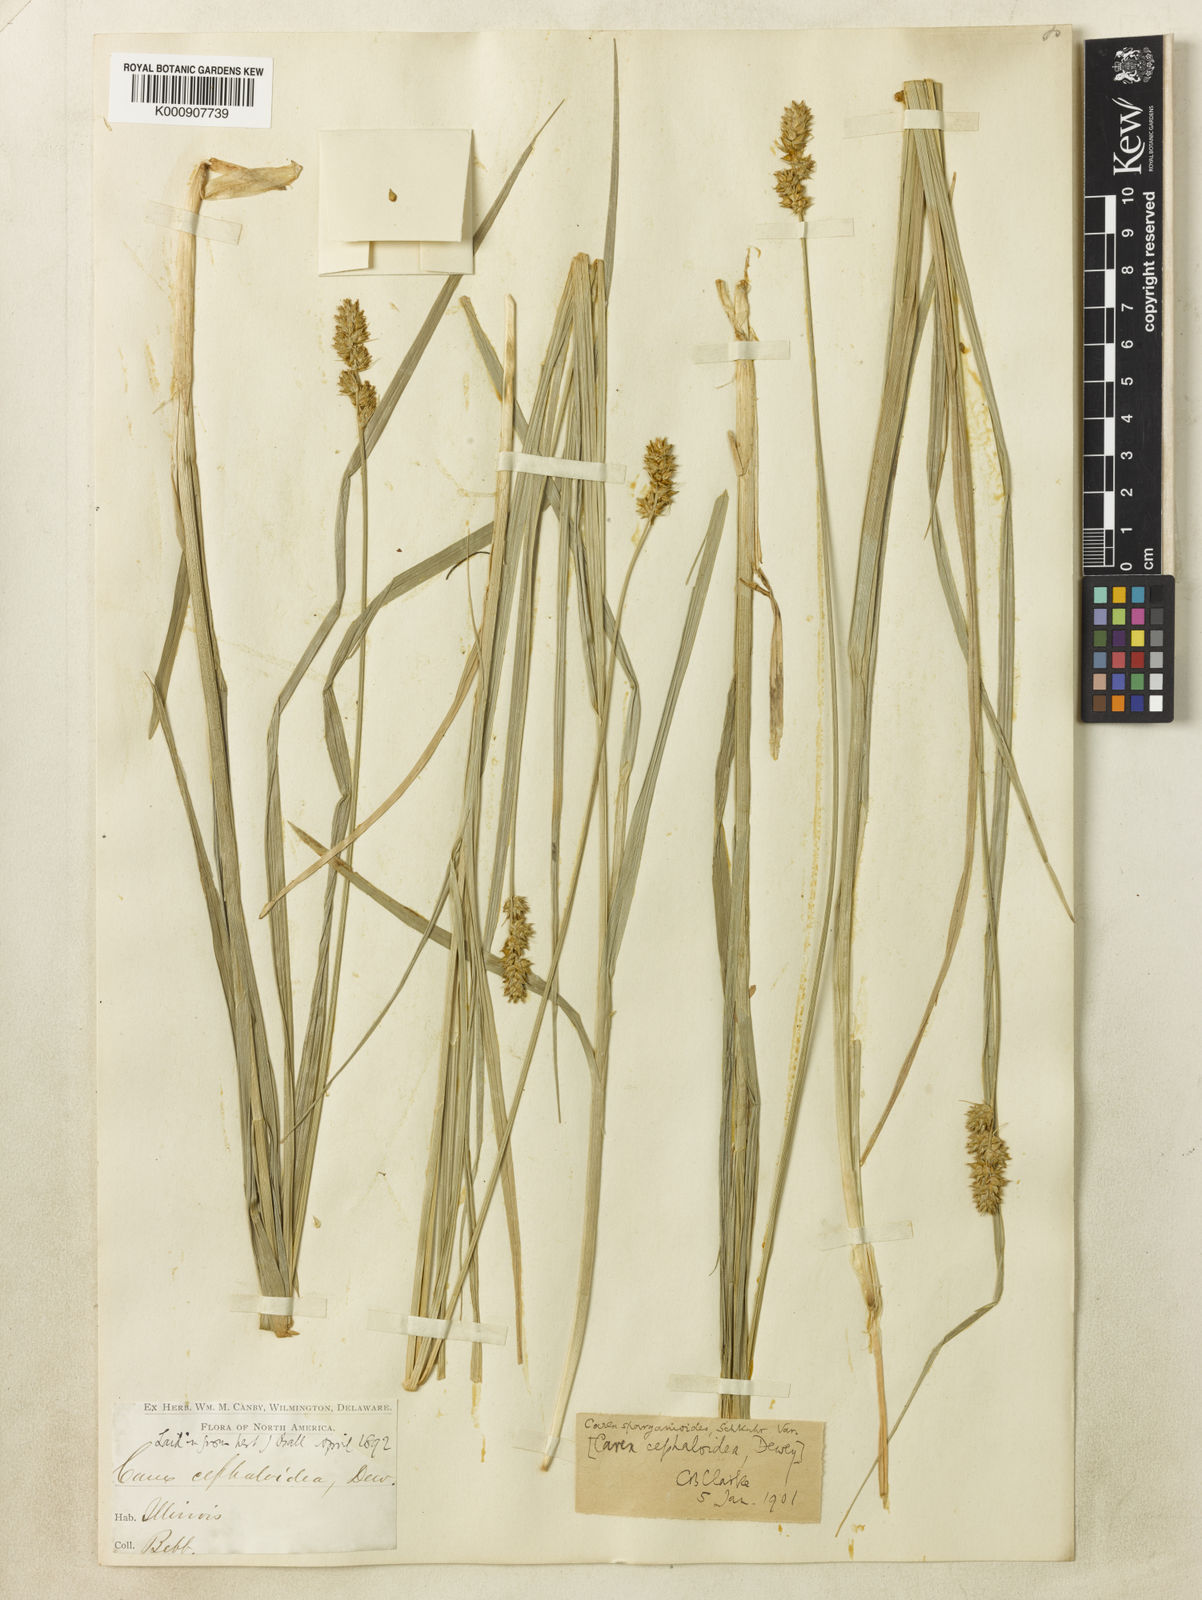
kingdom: Plantae
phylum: Tracheophyta
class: Liliopsida
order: Poales
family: Cyperaceae
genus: Carex
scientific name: Carex gravida
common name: Heavy sedge
